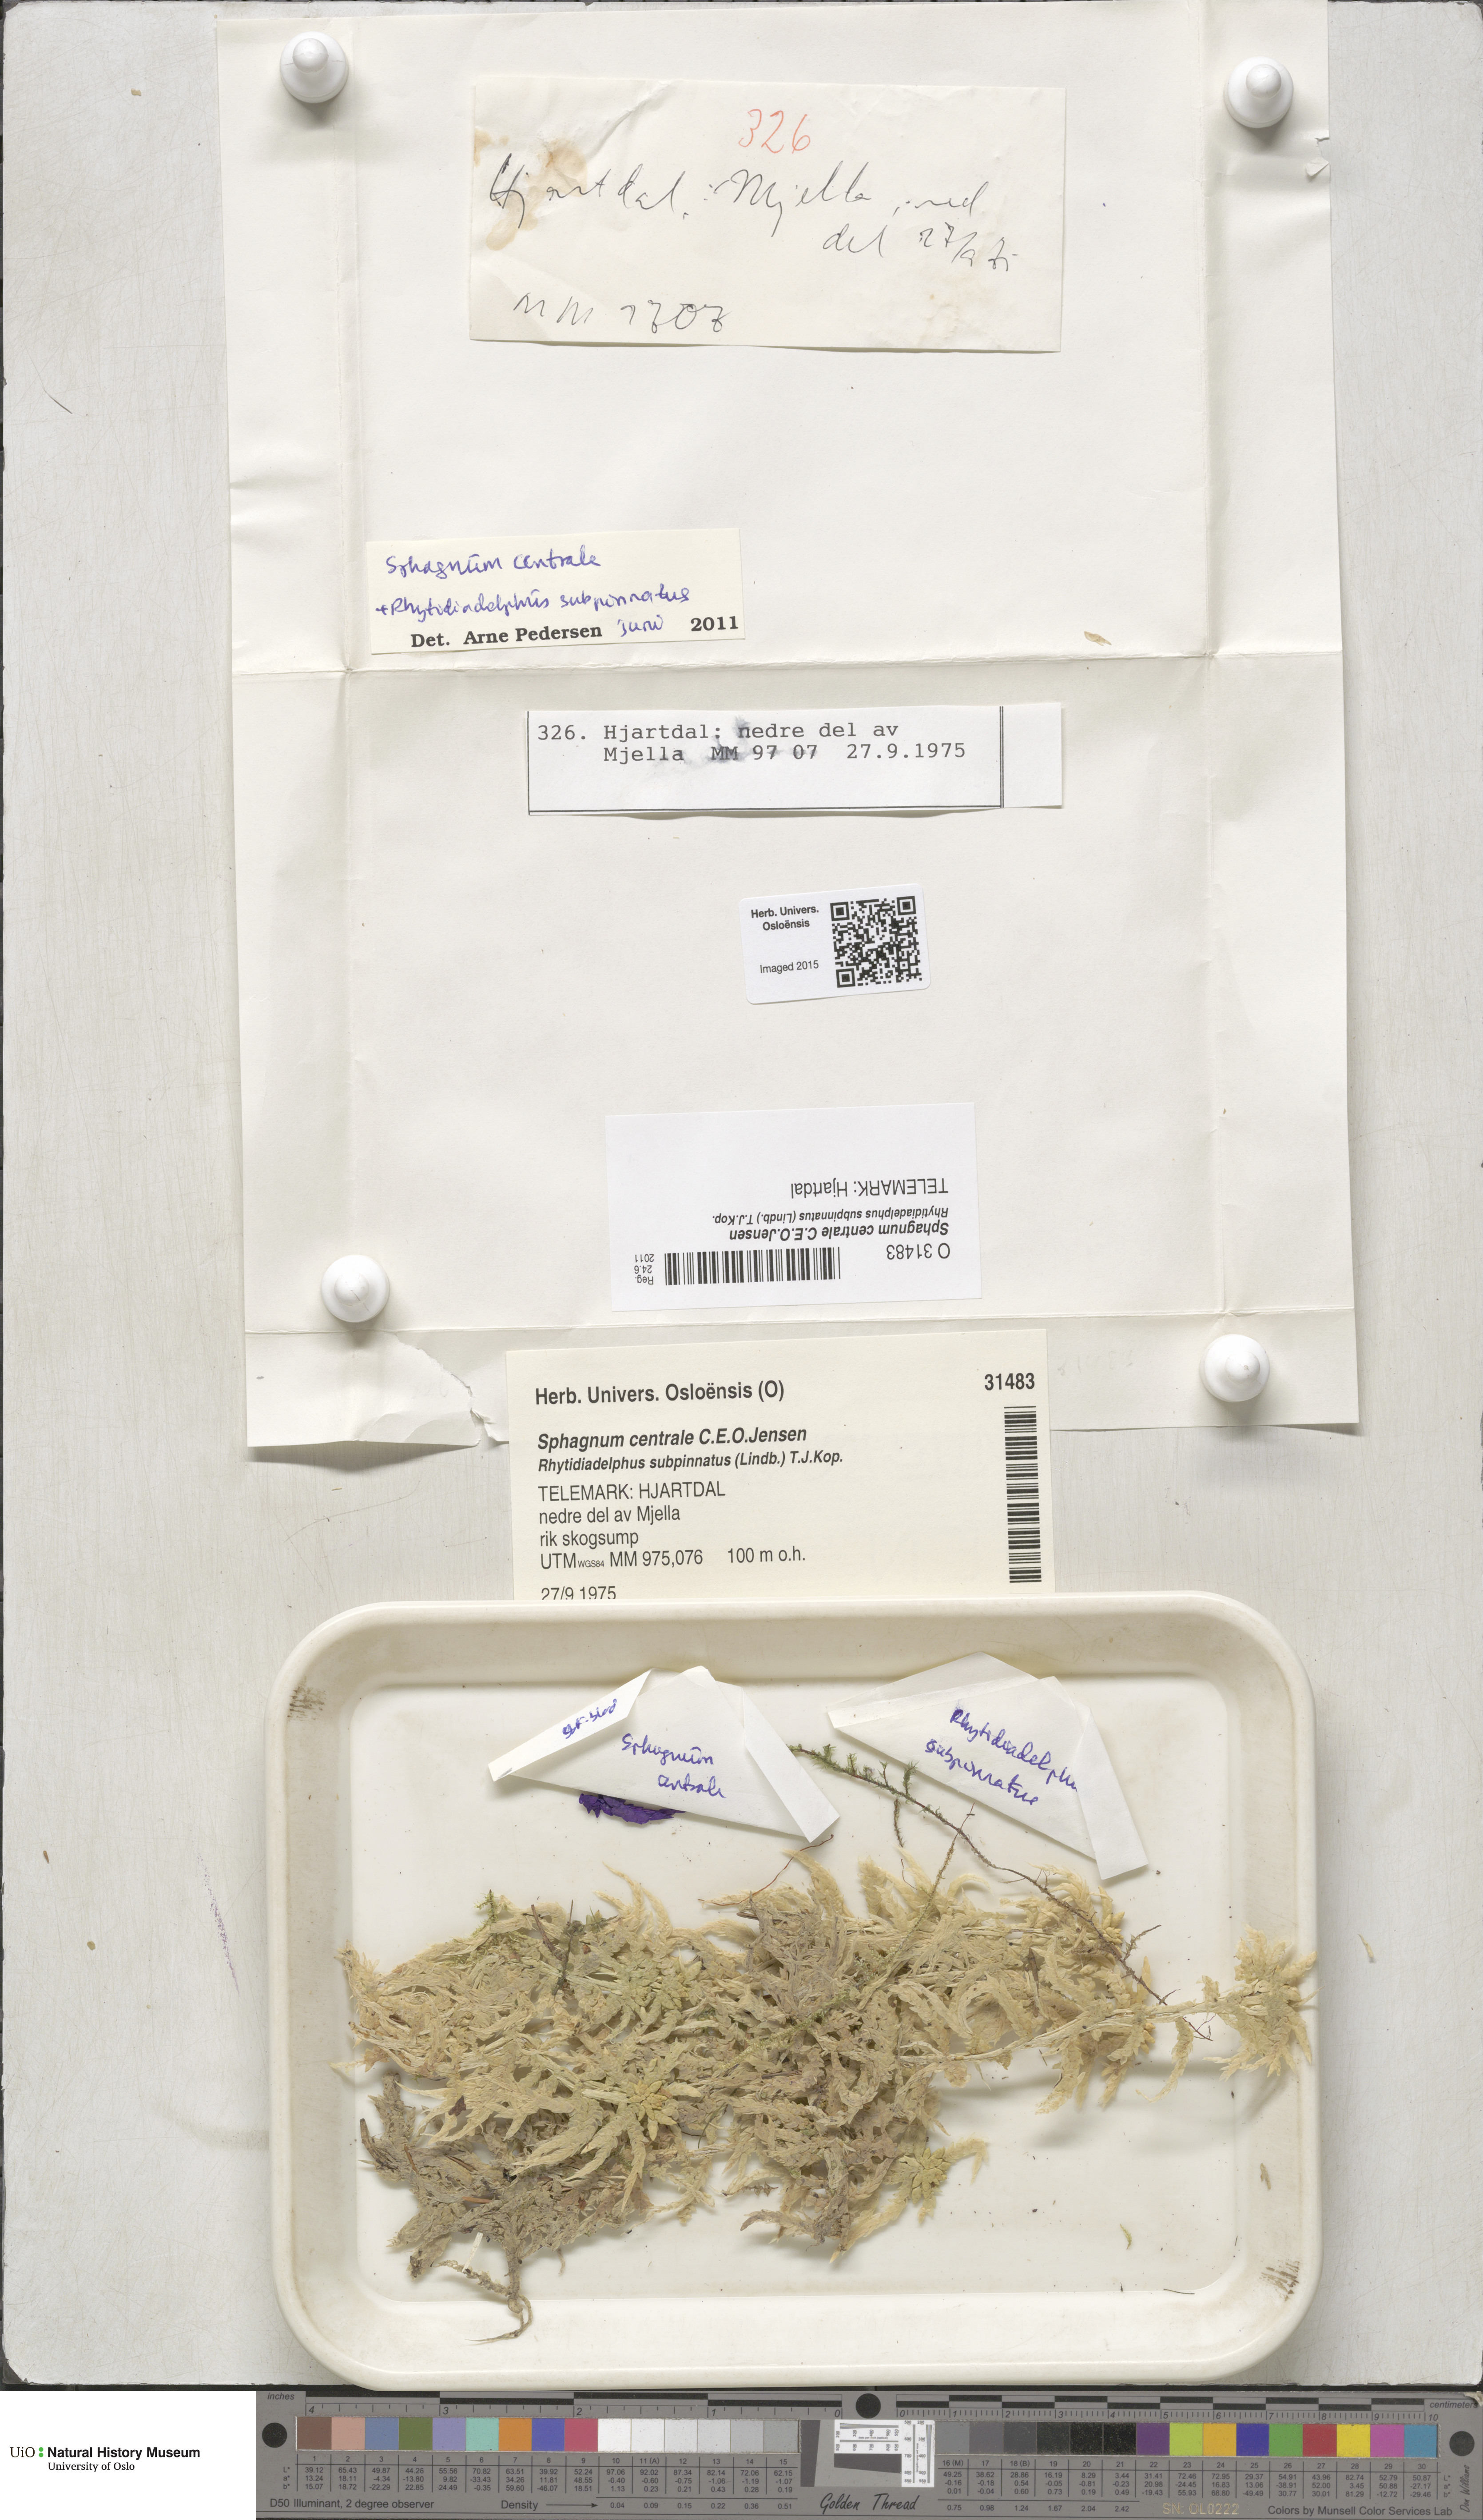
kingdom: Plantae
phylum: Bryophyta
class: Sphagnopsida
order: Sphagnales
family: Sphagnaceae
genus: Sphagnum
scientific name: Sphagnum centrale
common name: Central peat moss
